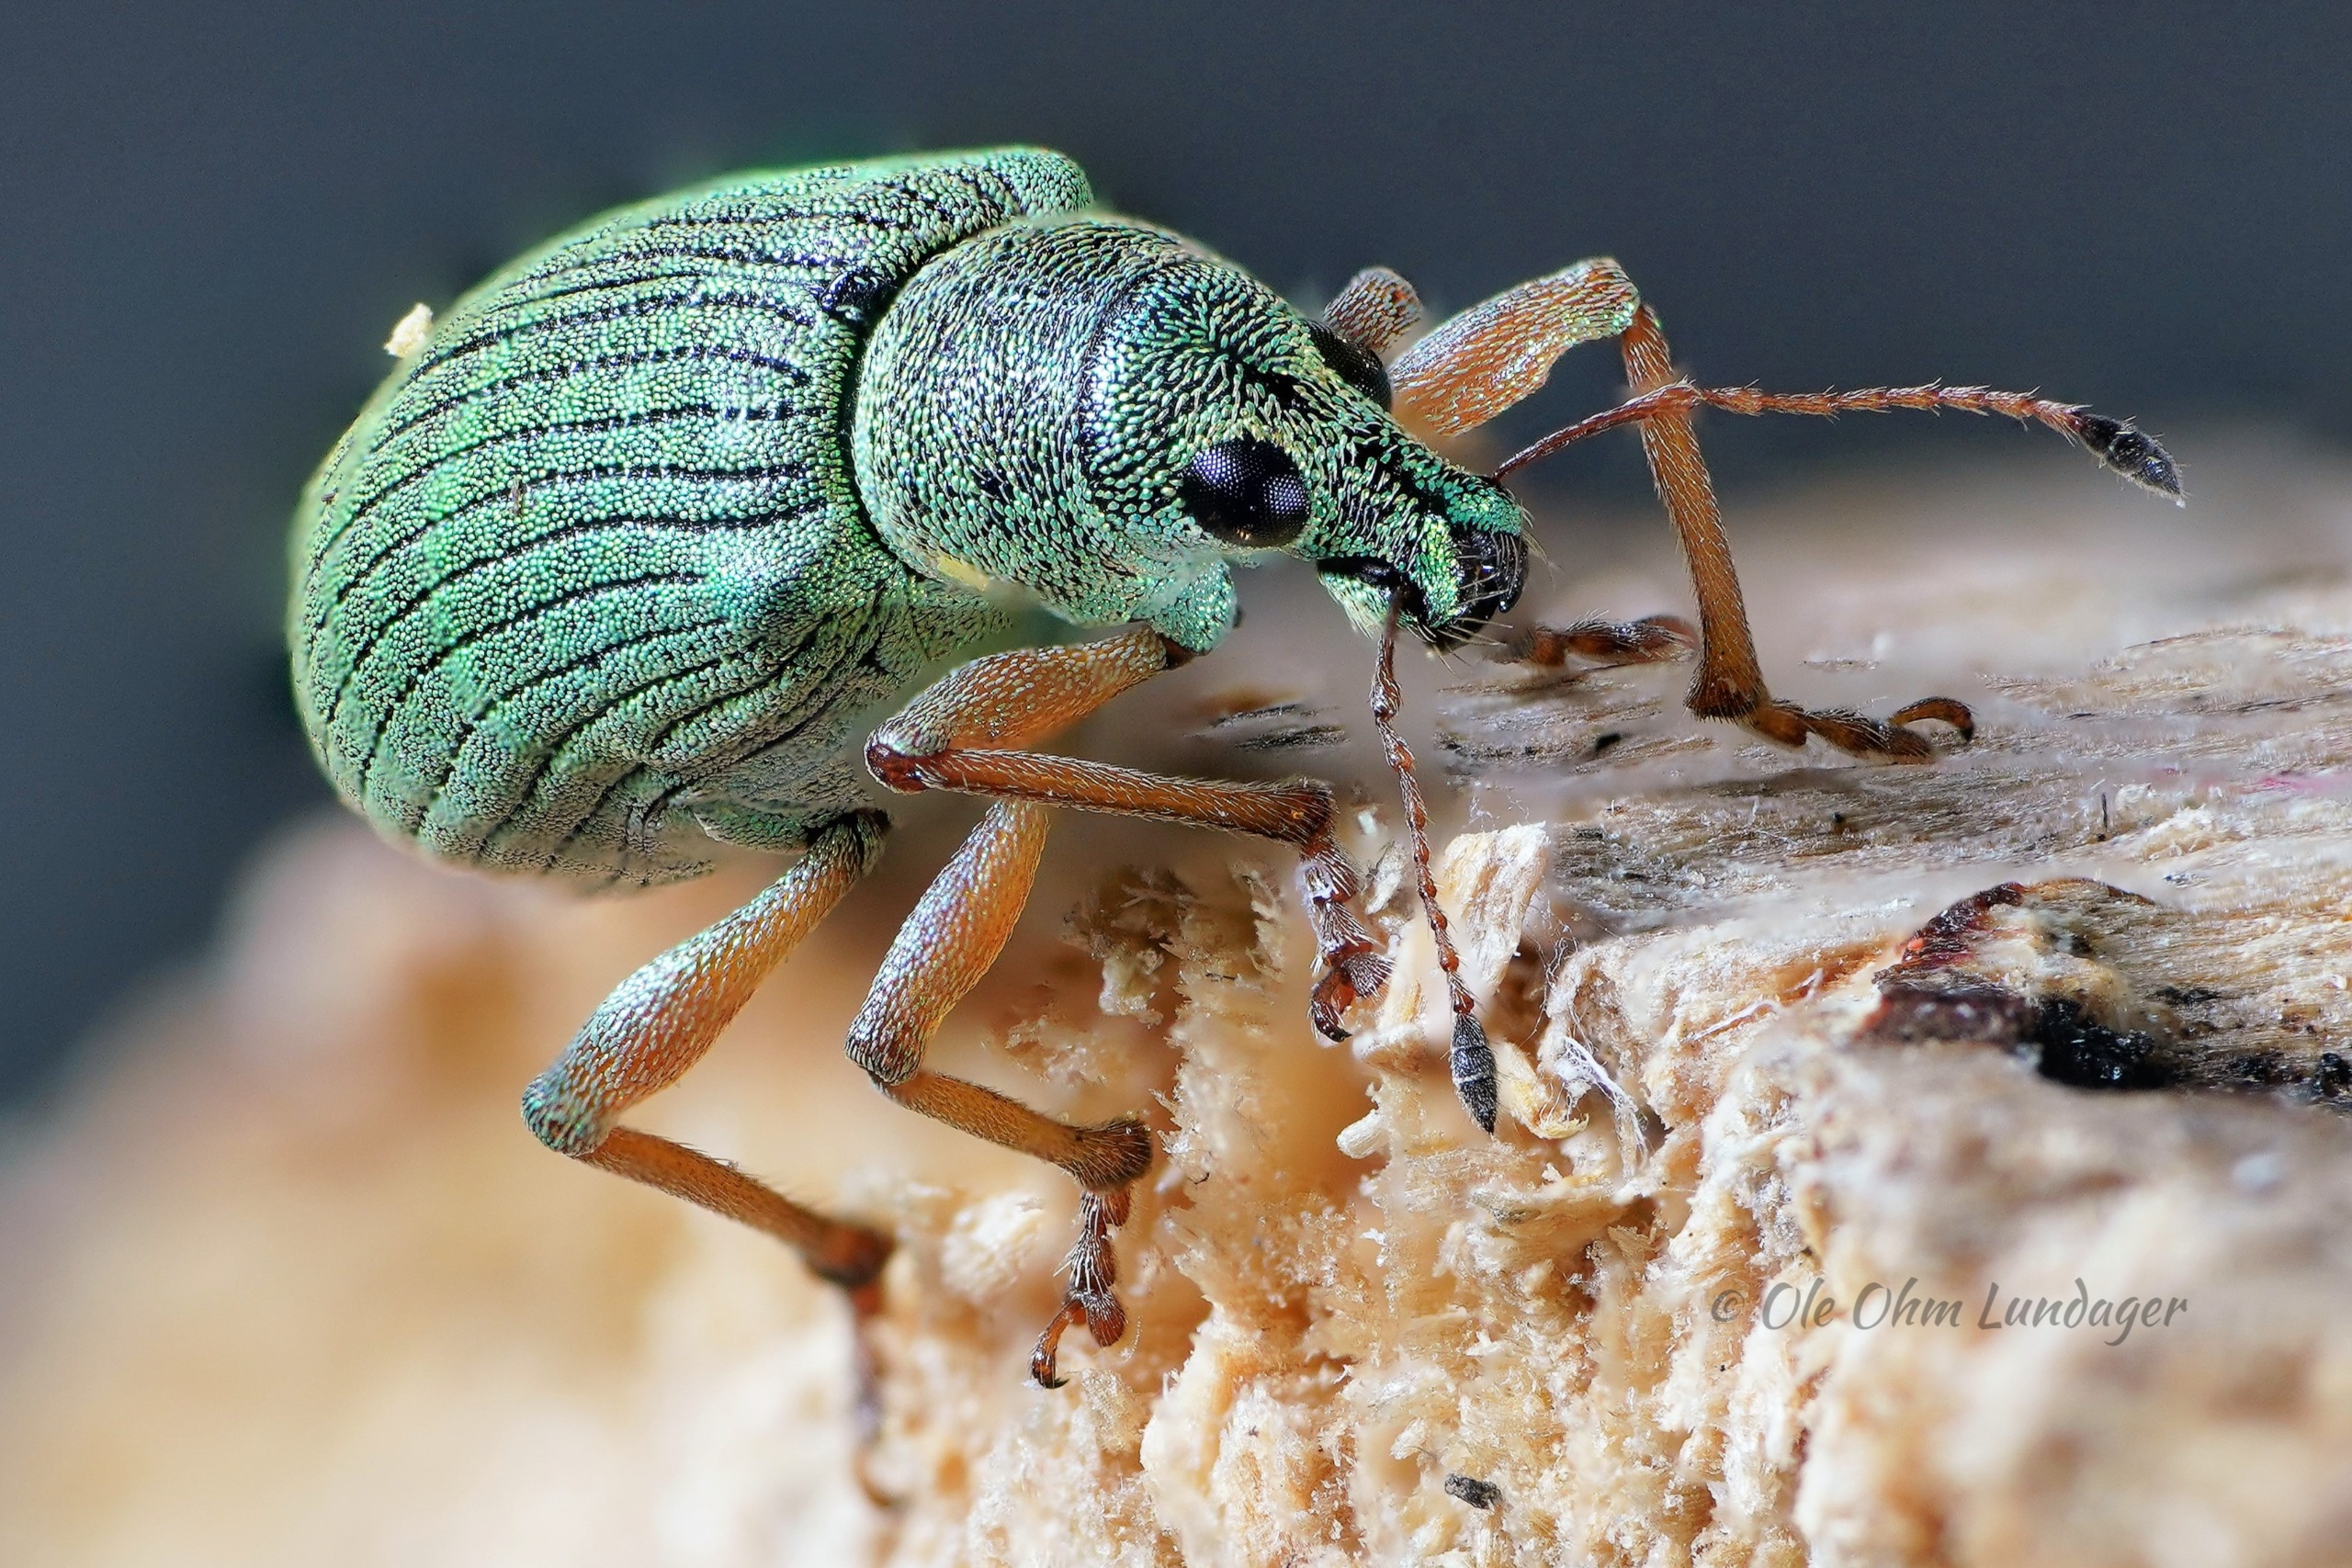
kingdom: Animalia
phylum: Arthropoda
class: Insecta
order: Coleoptera
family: Curculionidae
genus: Polydrusus
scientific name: Polydrusus formosus
